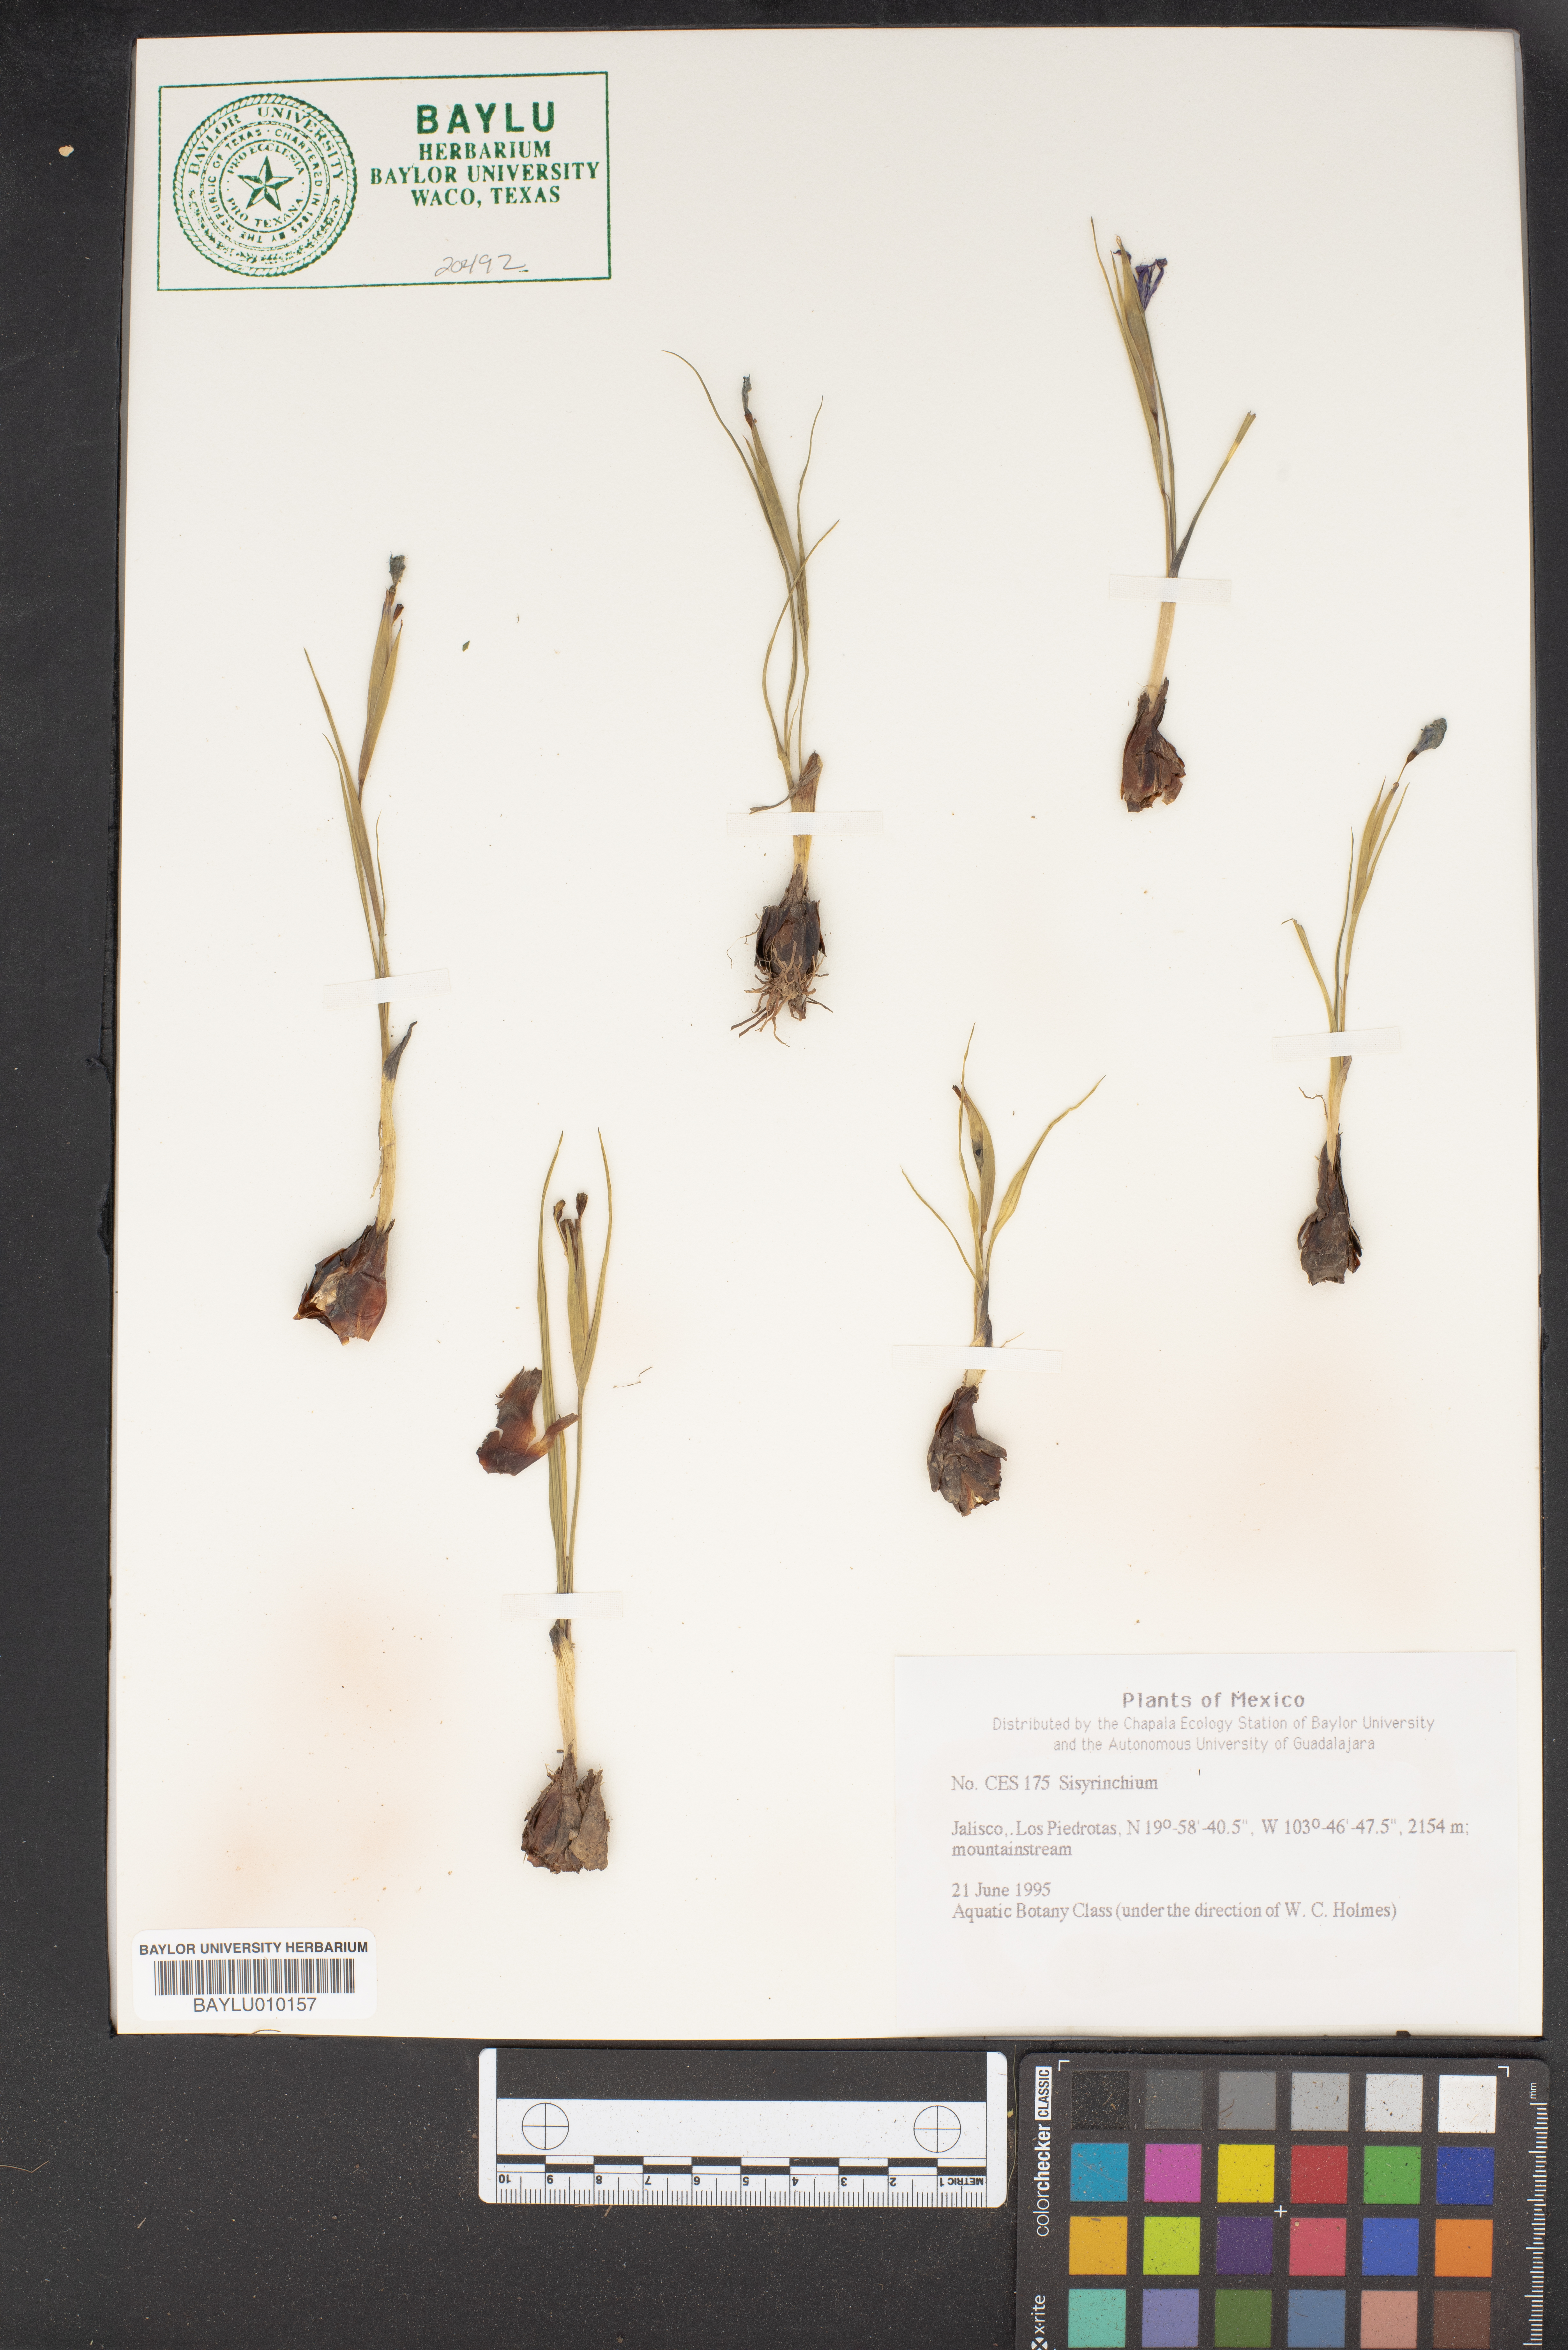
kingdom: Plantae
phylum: Tracheophyta
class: Liliopsida
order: Asparagales
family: Iridaceae
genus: Sisyrinchium
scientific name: Sisyrinchium
